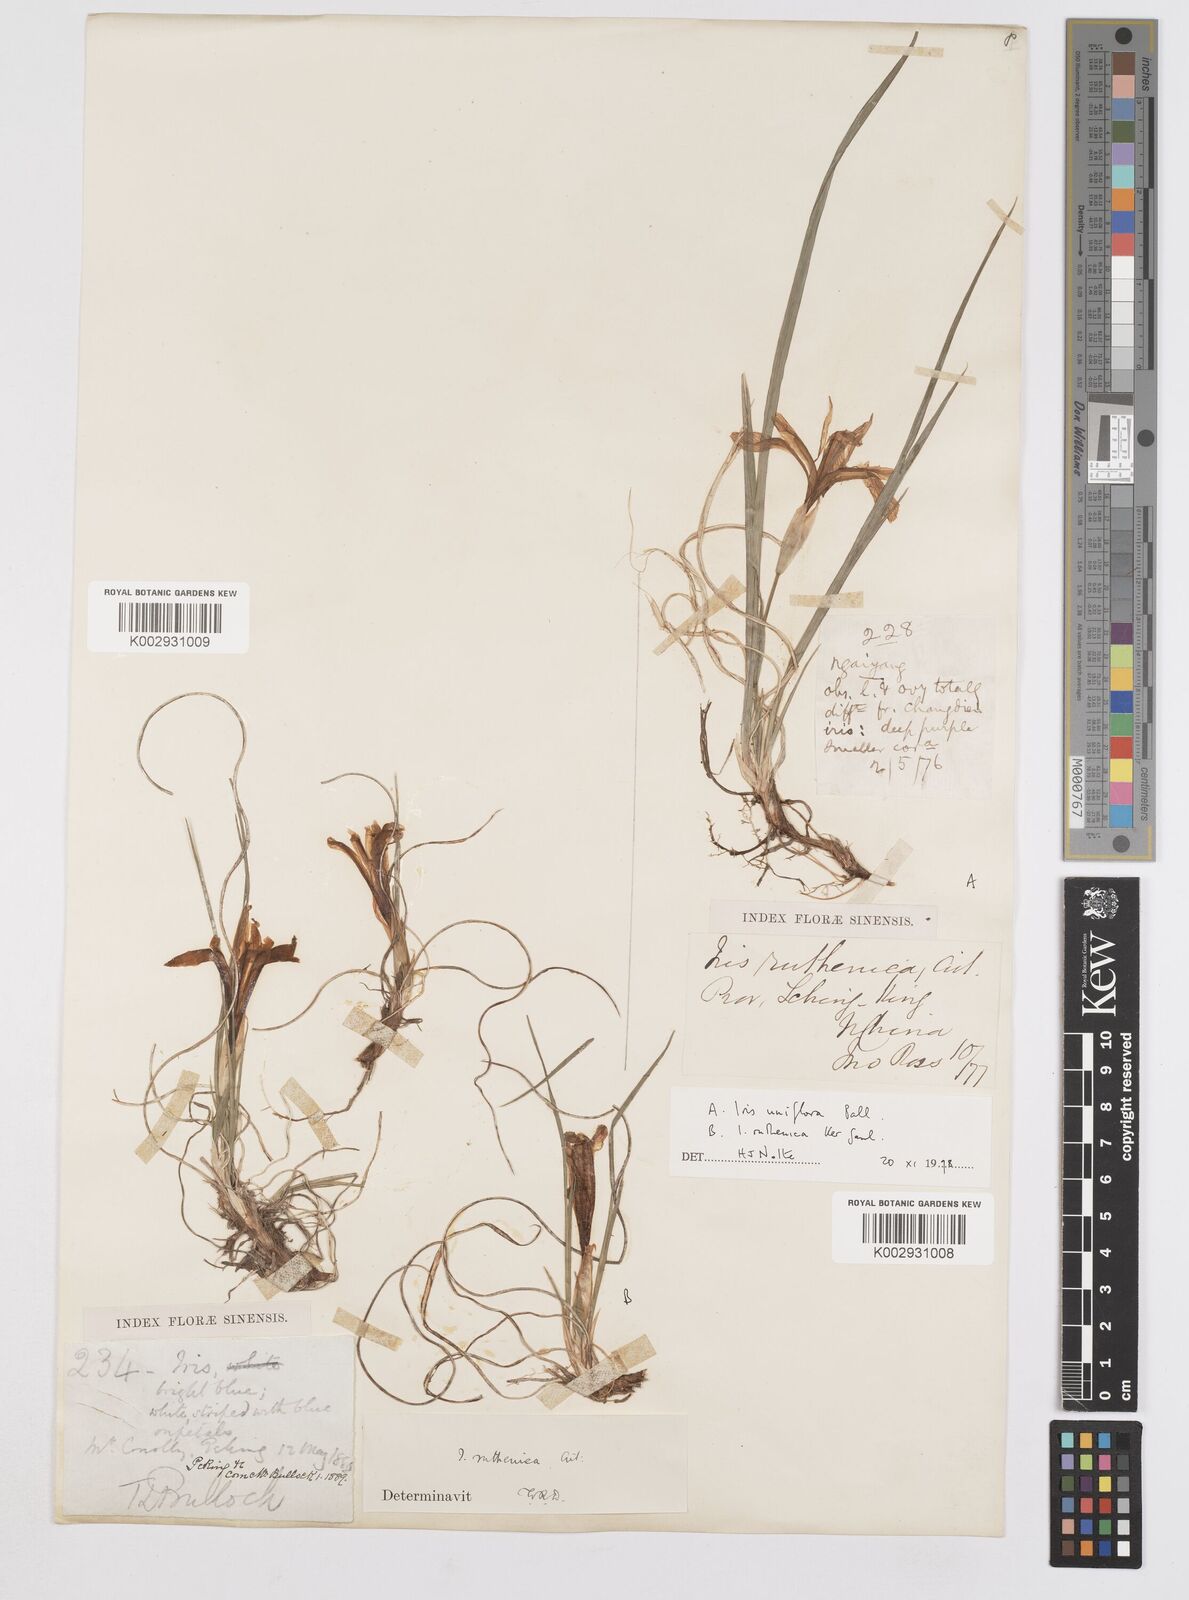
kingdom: Plantae
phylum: Tracheophyta
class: Liliopsida
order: Asparagales
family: Iridaceae
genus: Iris
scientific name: Iris uniflora
